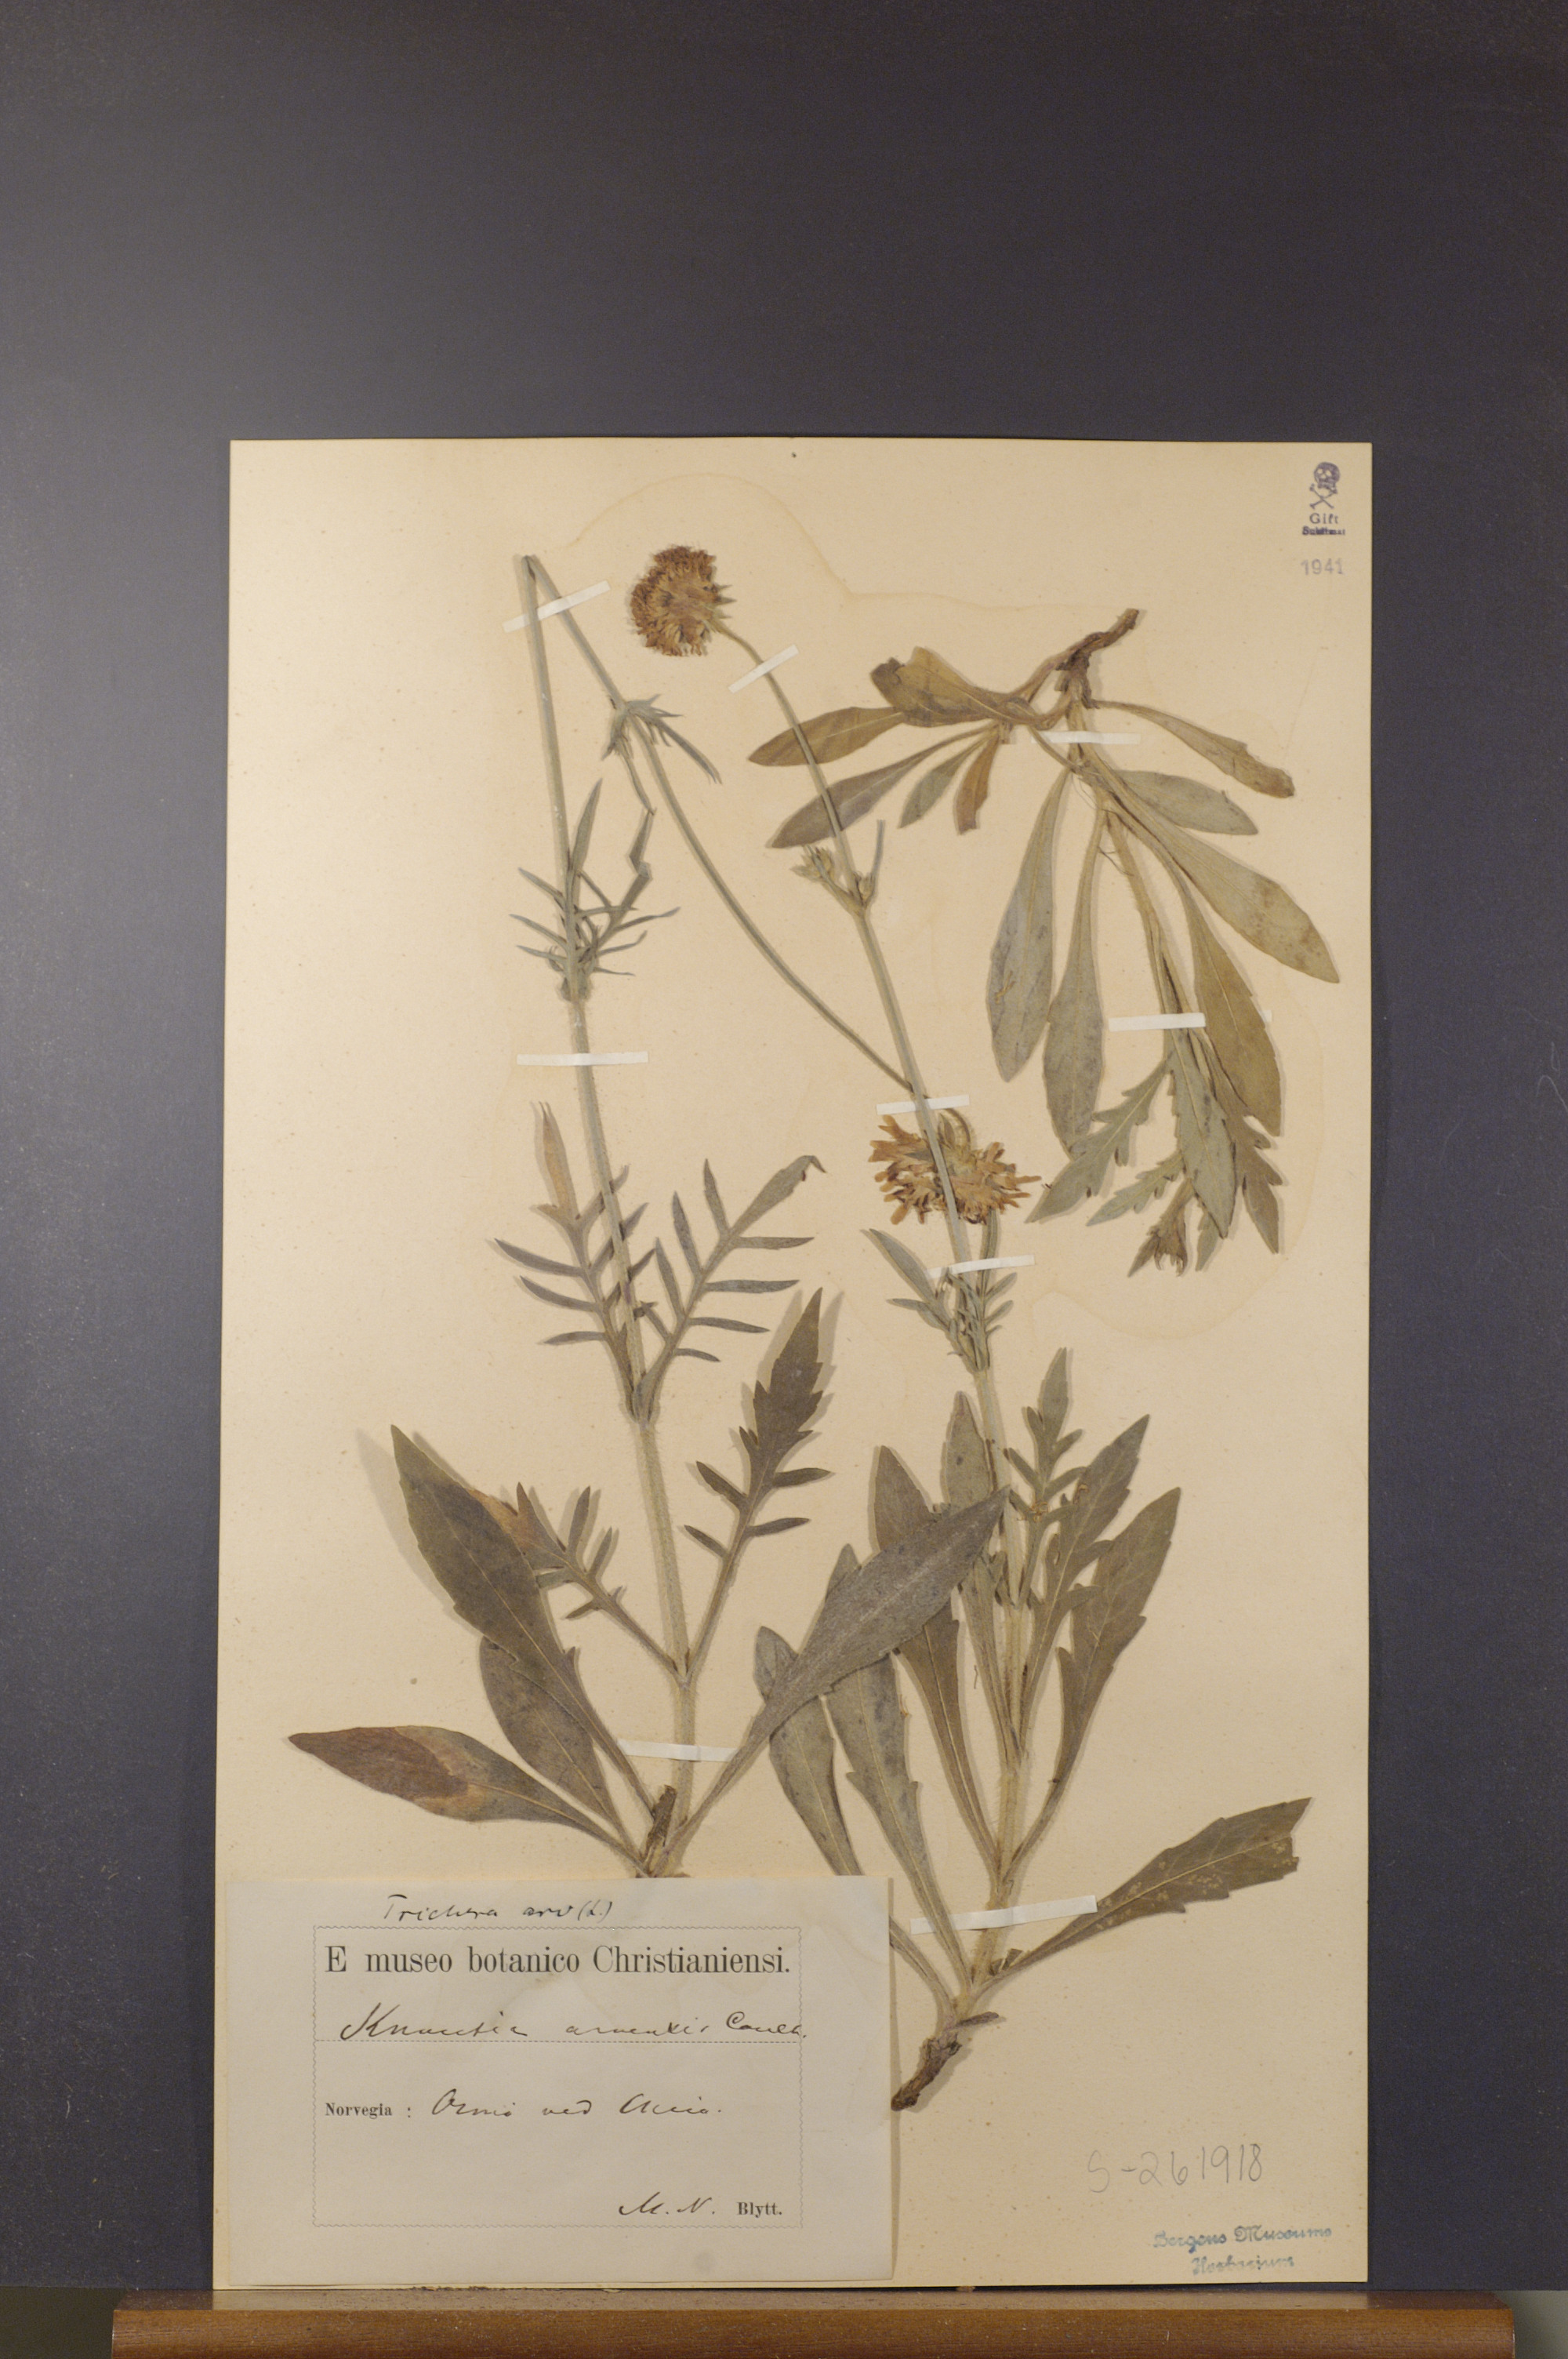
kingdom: Plantae
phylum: Tracheophyta
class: Magnoliopsida
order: Dipsacales
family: Caprifoliaceae
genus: Knautia
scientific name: Knautia arvensis
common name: Field scabiosa
